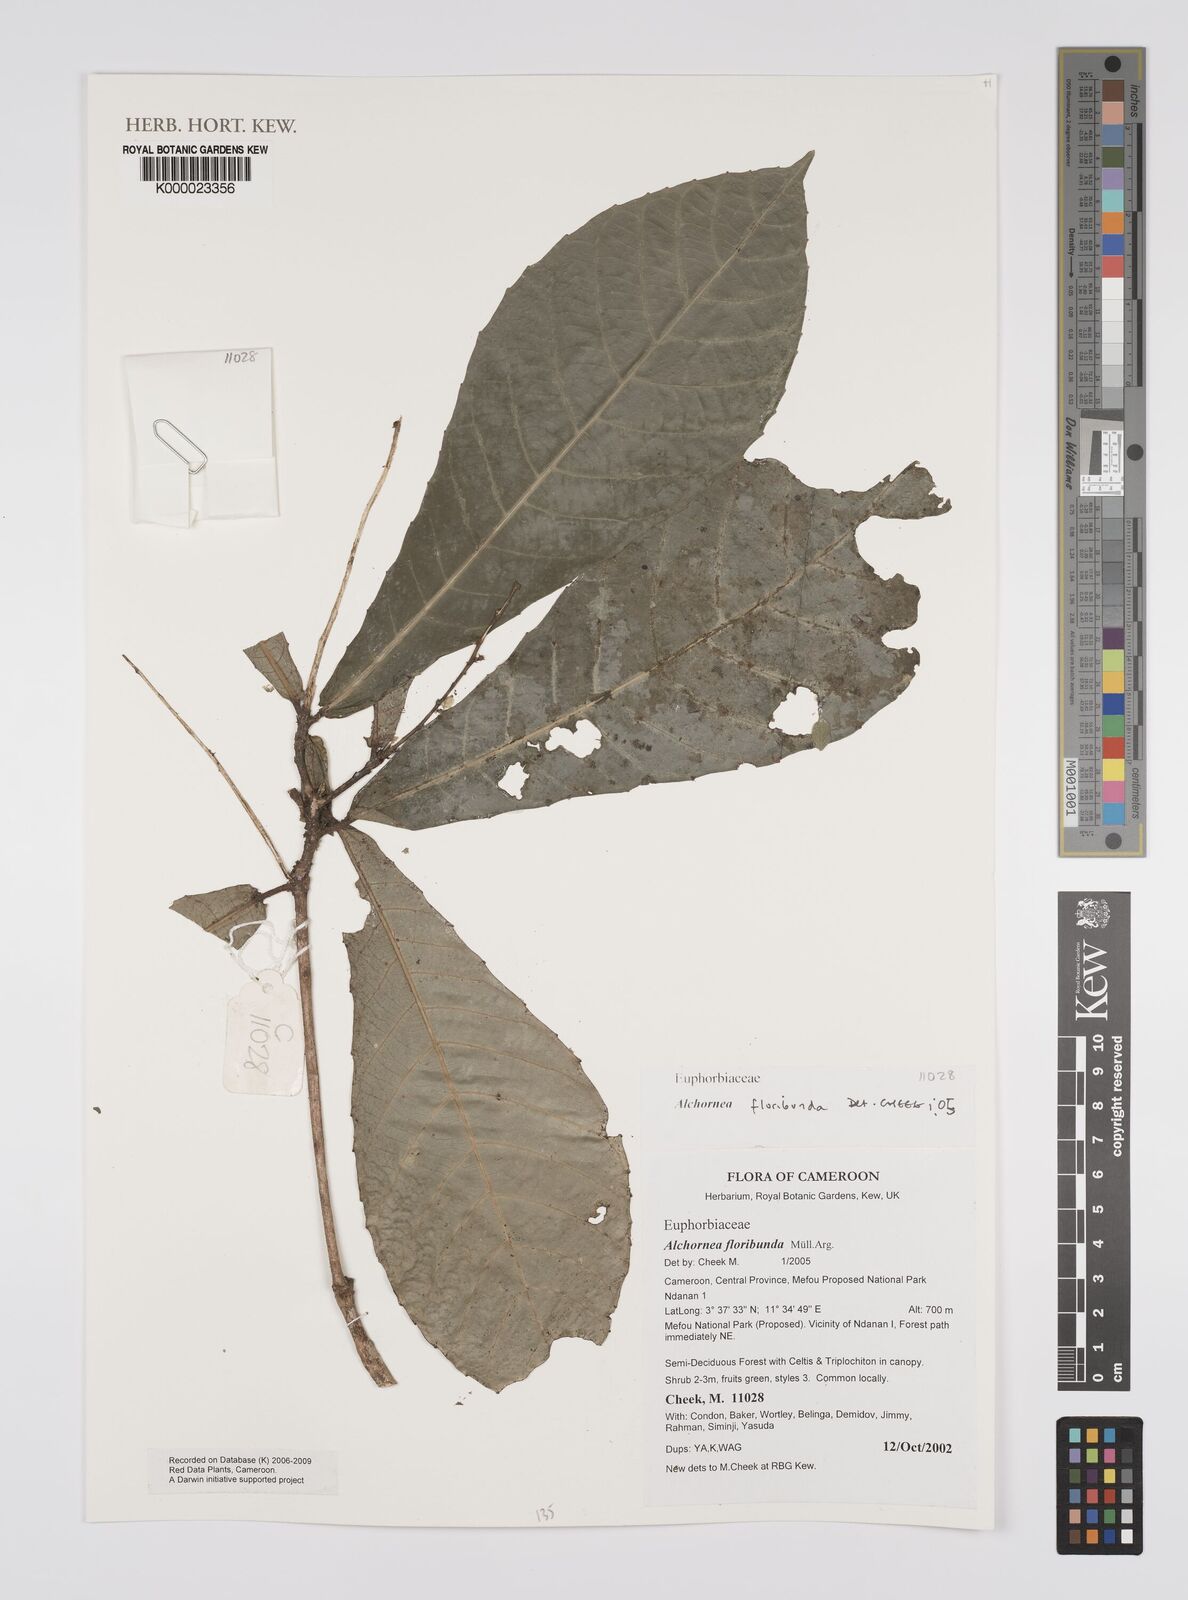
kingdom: Plantae
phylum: Tracheophyta
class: Magnoliopsida
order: Malpighiales
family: Euphorbiaceae
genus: Alchornea
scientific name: Alchornea
